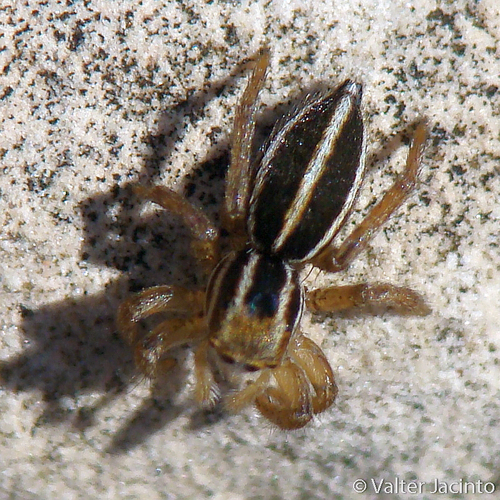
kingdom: Animalia
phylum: Arthropoda
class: Arachnida
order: Araneae
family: Salticidae
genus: Phlegra
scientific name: Phlegra bresnieri
